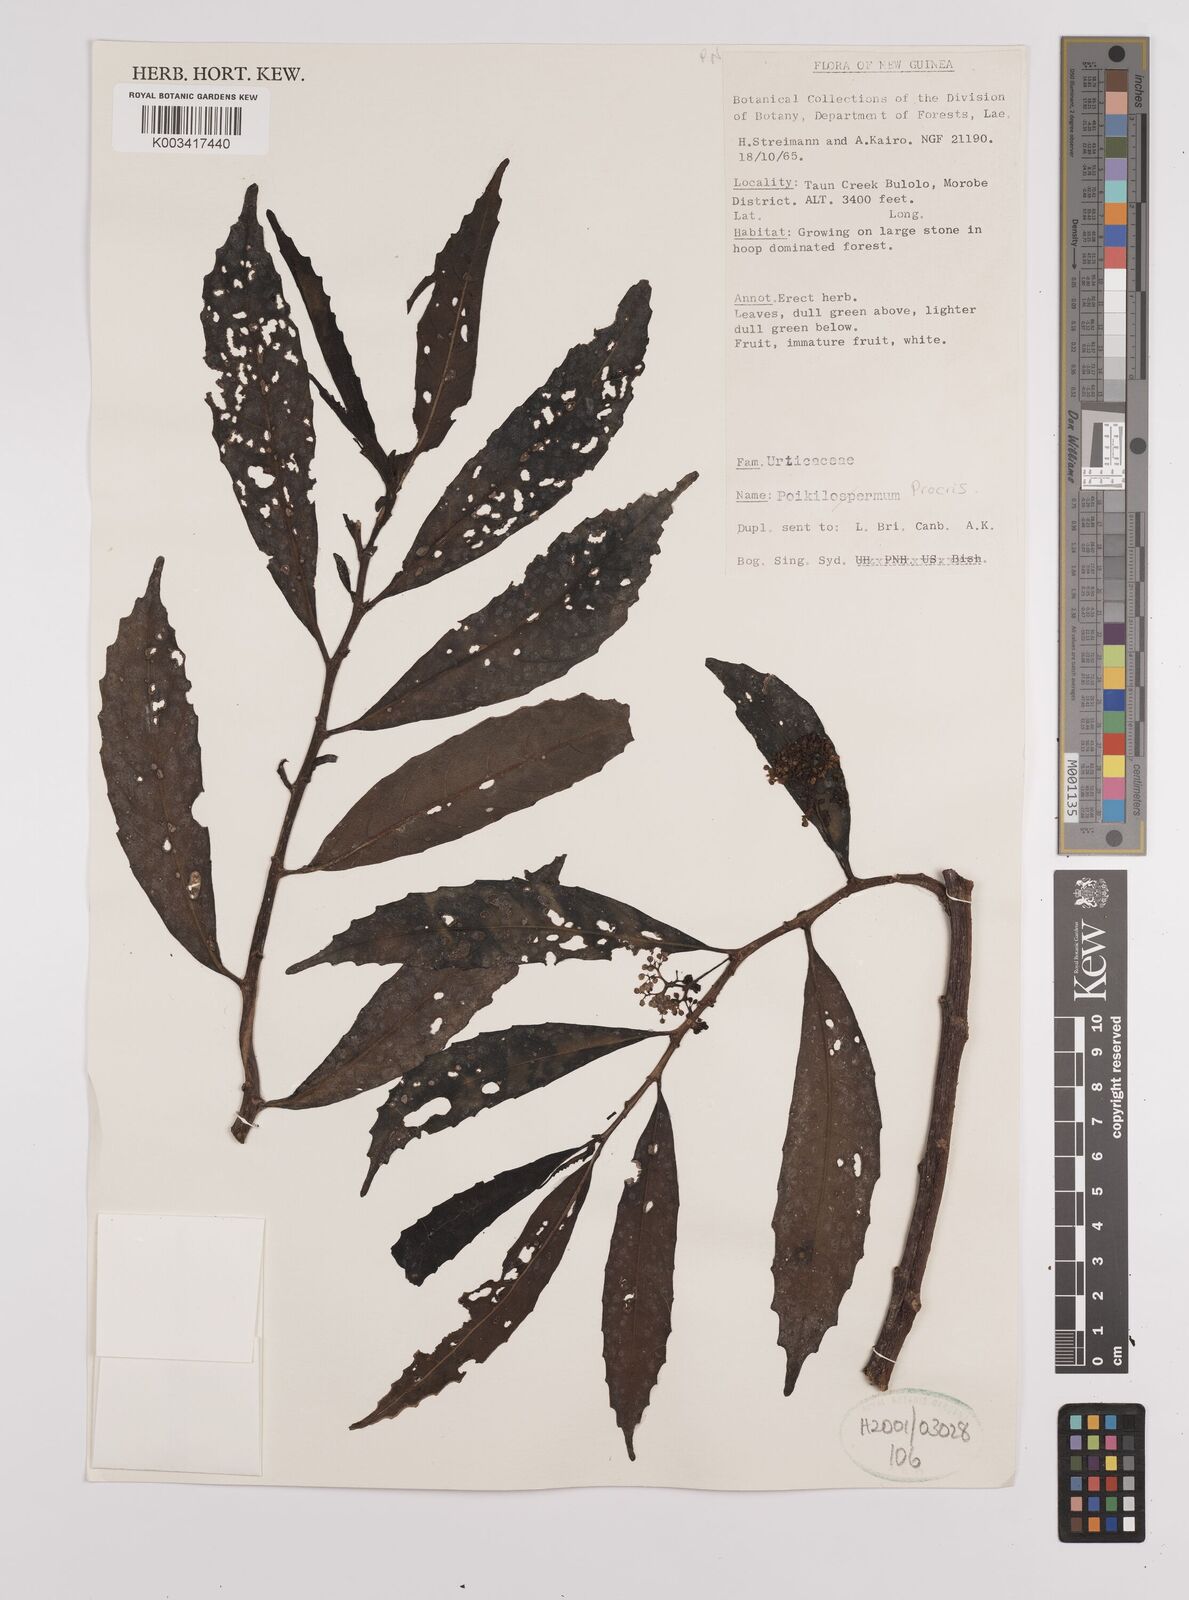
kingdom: Plantae
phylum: Tracheophyta
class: Magnoliopsida
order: Rosales
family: Urticaceae
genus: Procris
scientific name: Procris
